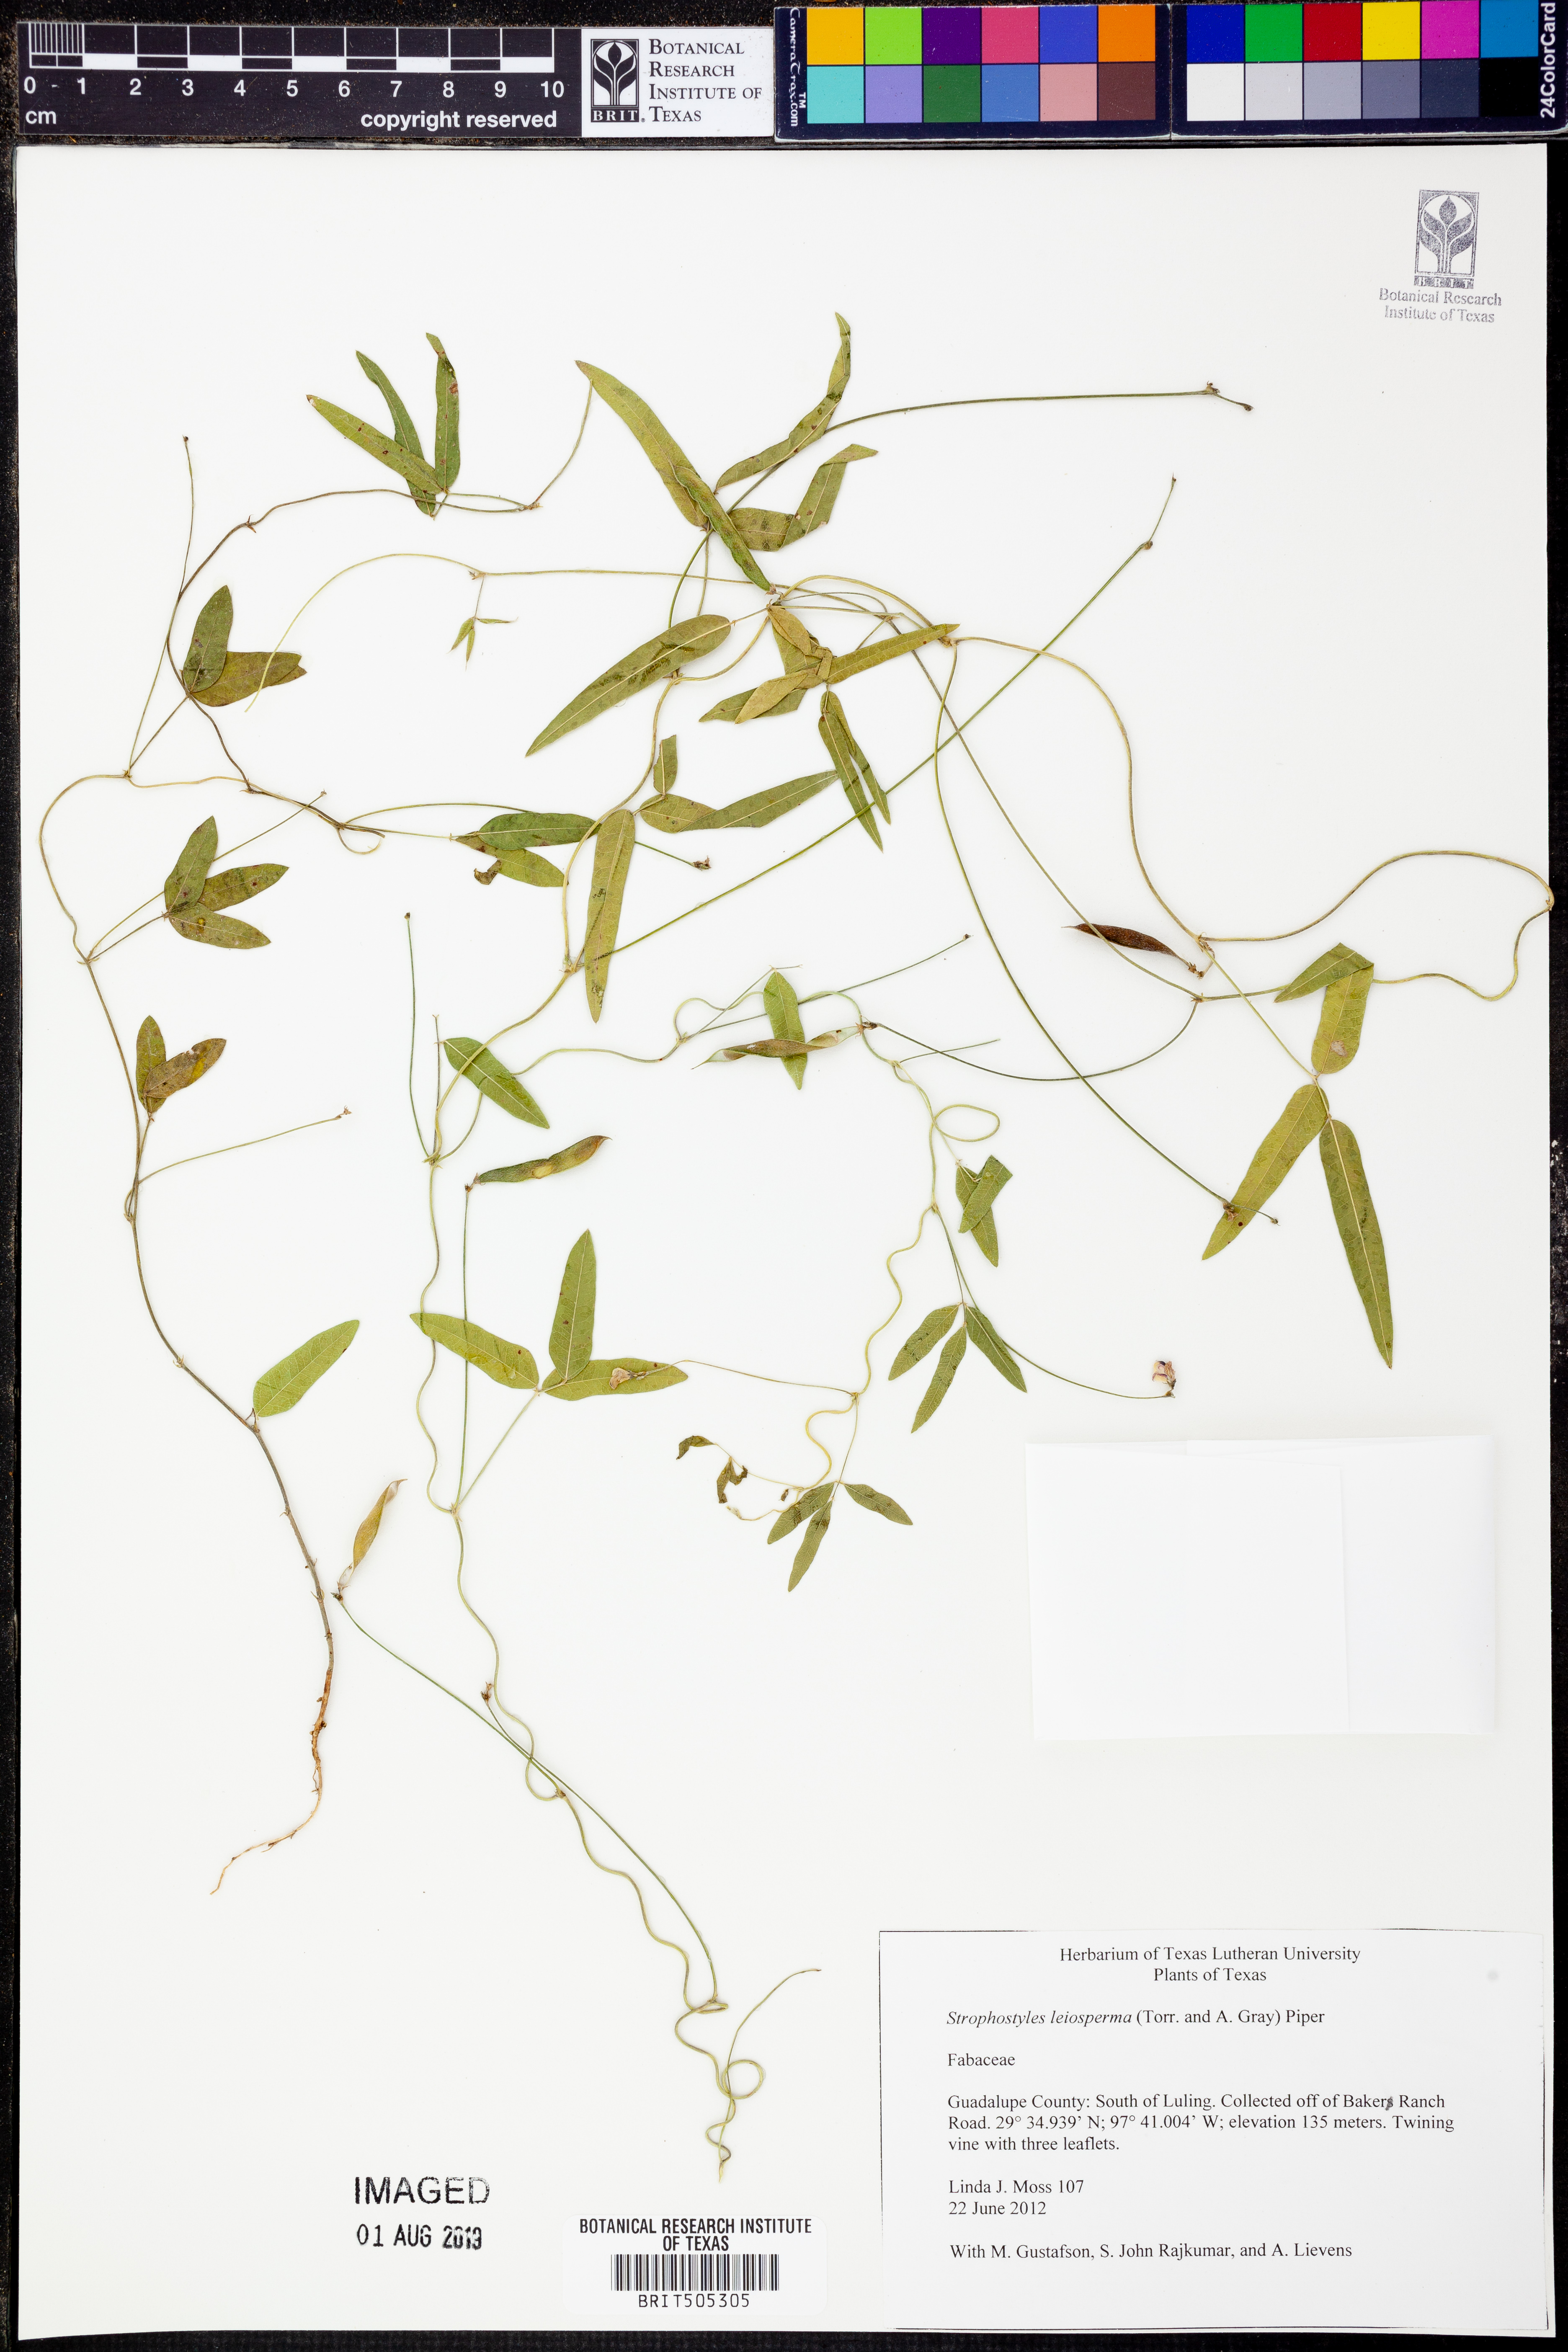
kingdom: Plantae
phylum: Tracheophyta
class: Magnoliopsida
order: Fabales
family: Fabaceae
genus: Strophostyles
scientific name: Strophostyles leiosperma
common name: Smooth-seed wild bean
